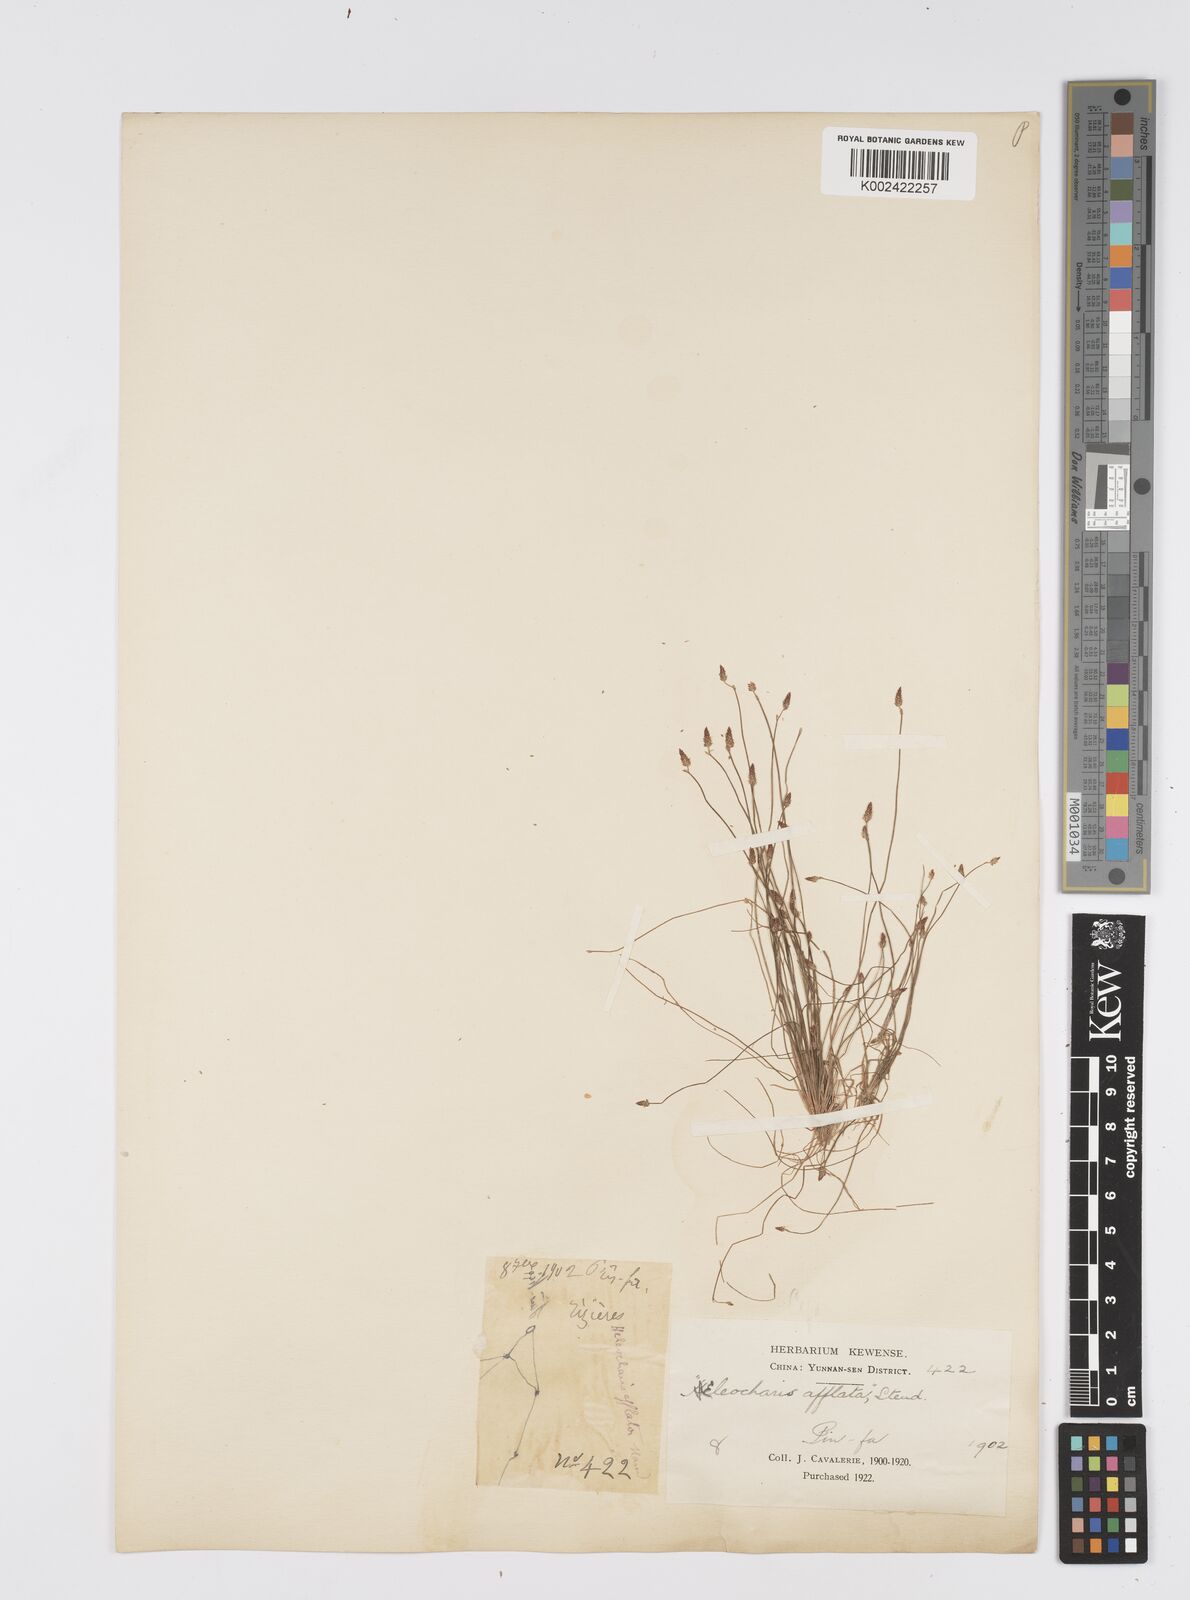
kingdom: Plantae
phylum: Tracheophyta
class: Liliopsida
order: Poales
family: Cyperaceae
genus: Eleocharis
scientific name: Eleocharis pellucida
